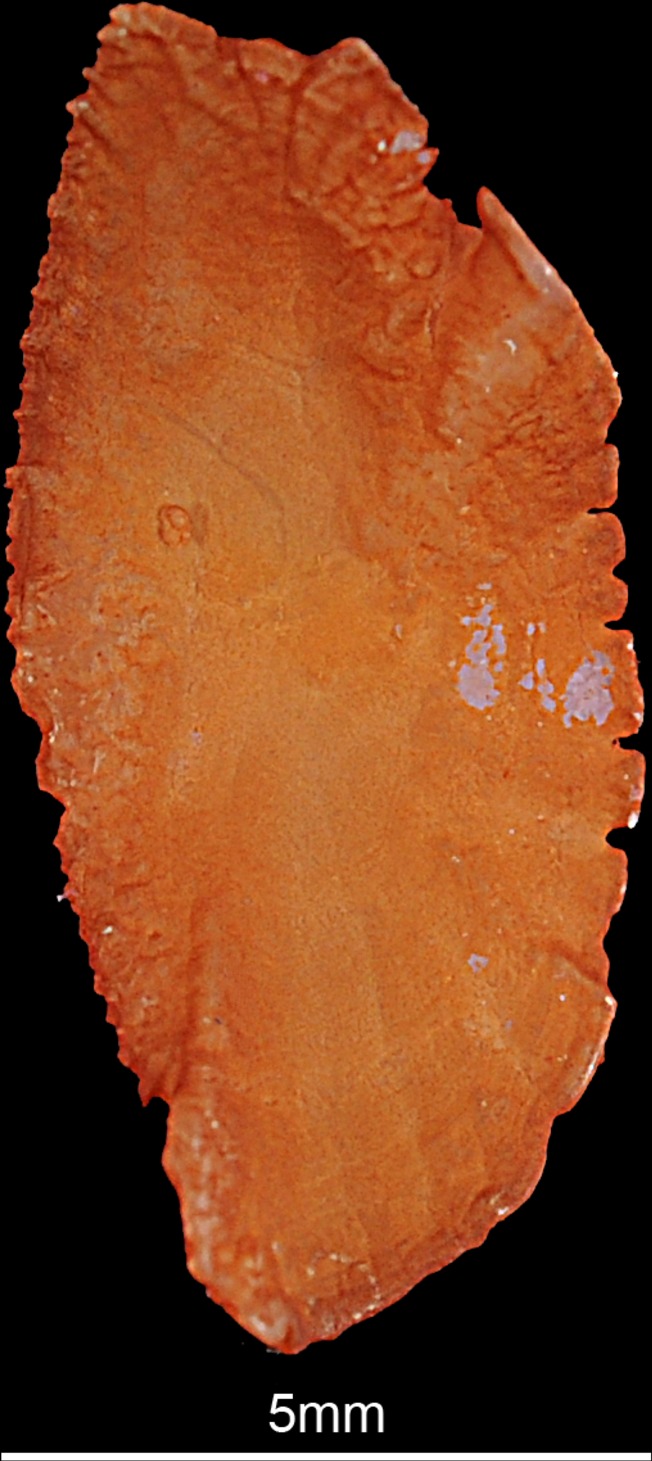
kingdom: Animalia
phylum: Chordata
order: Perciformes
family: Haemulidae
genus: Plectorhinchus
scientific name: Plectorhinchus gaterinus
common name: Blackspotted rubberlip
